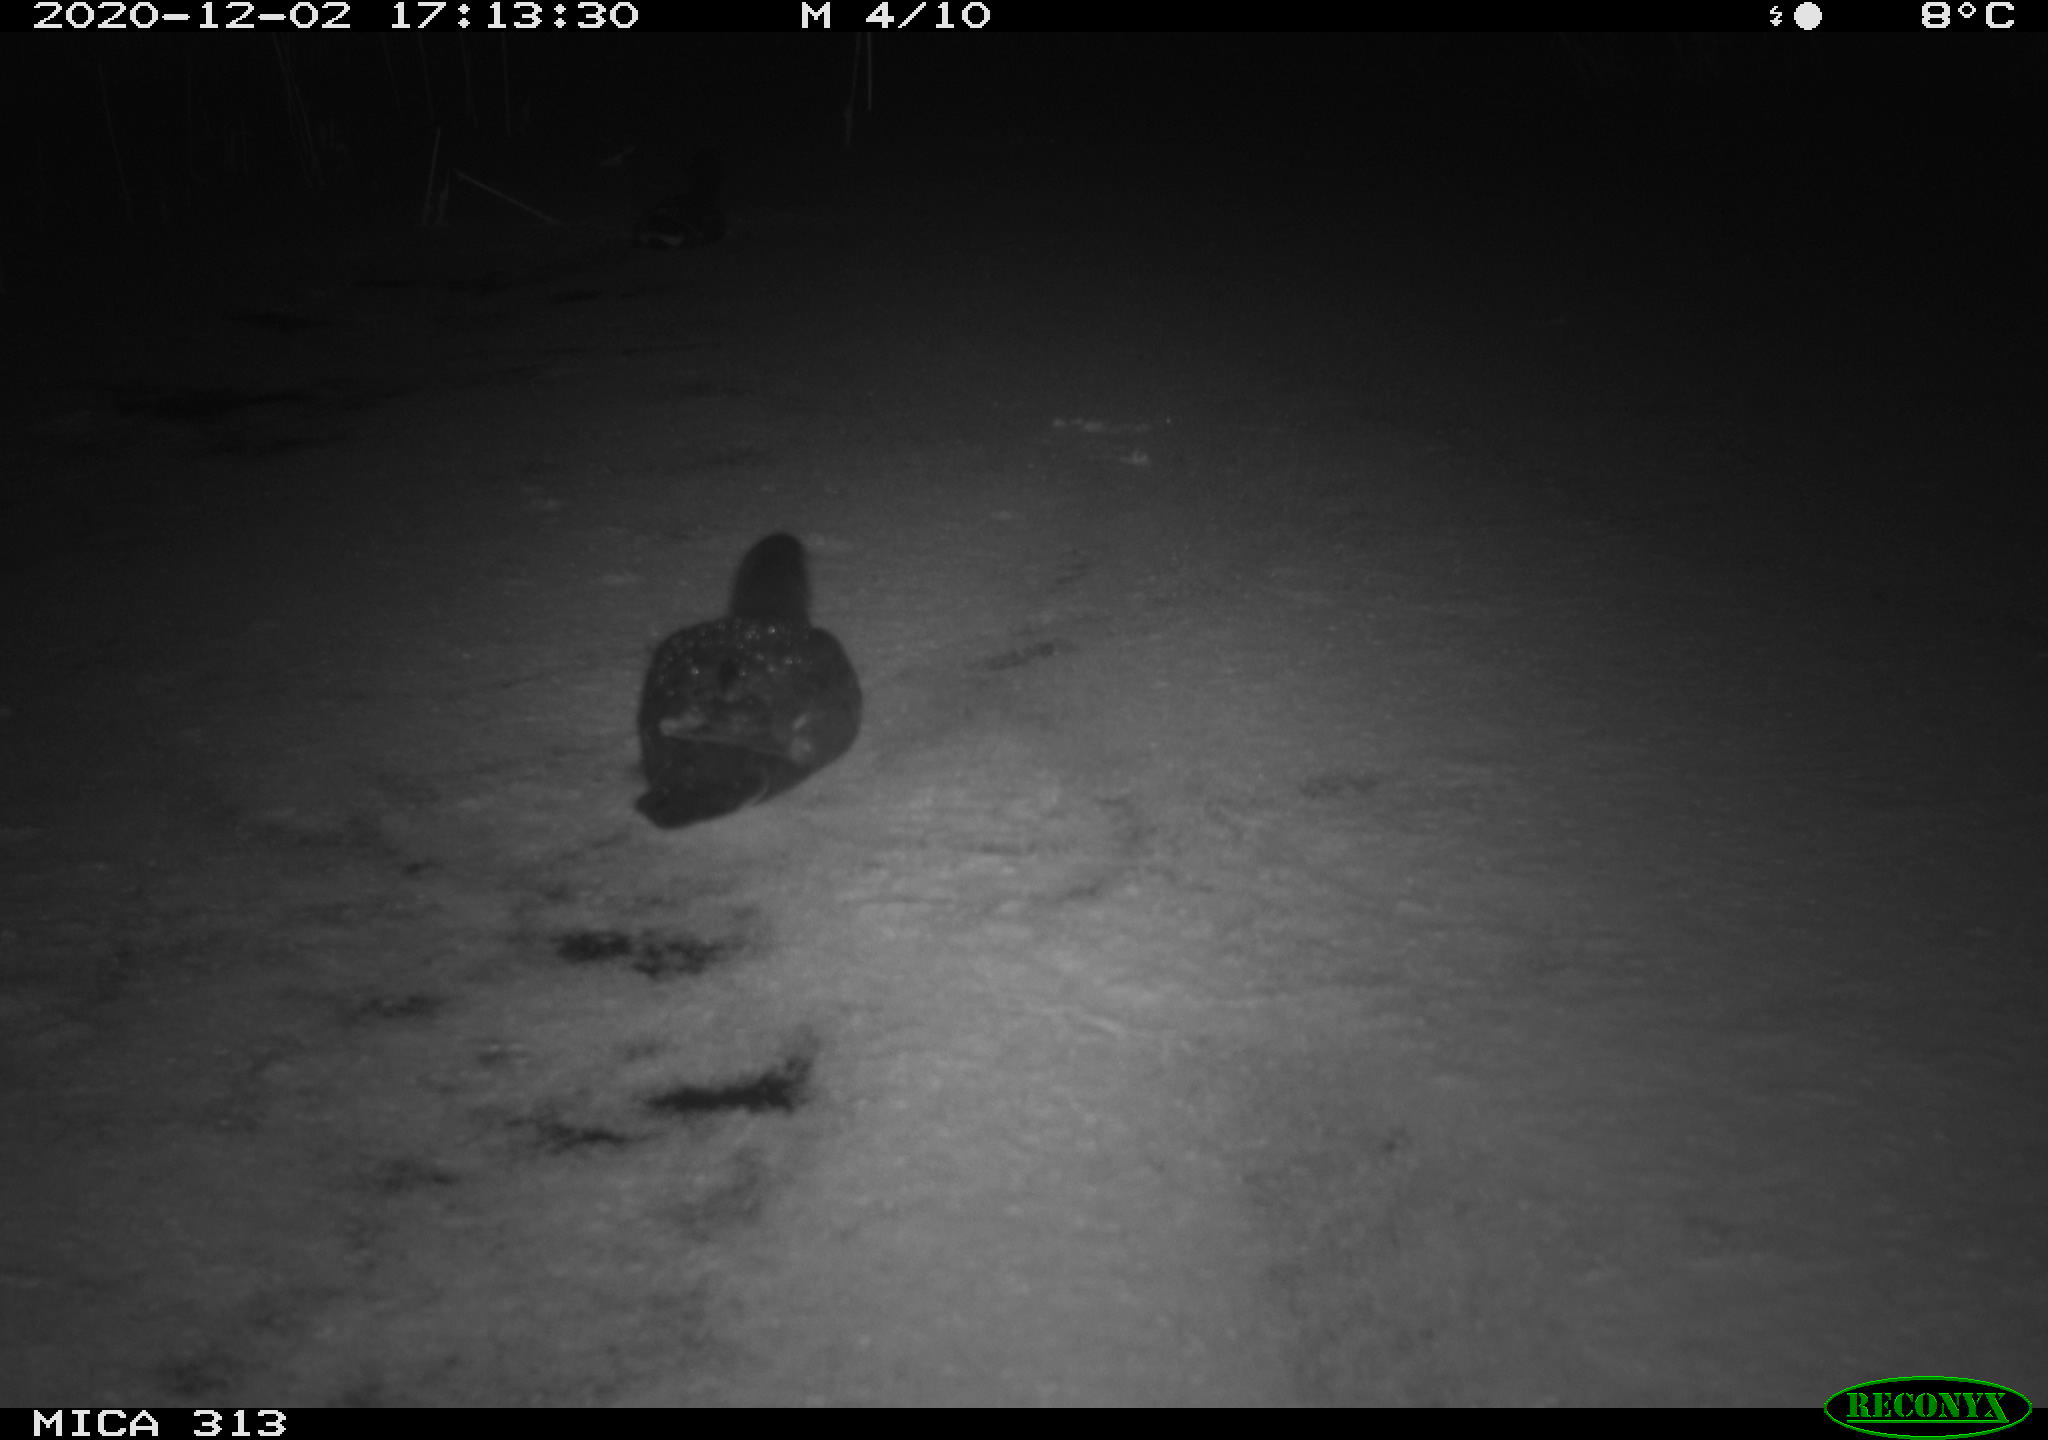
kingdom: Animalia
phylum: Chordata
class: Aves
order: Gruiformes
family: Rallidae
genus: Fulica
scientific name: Fulica atra
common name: Eurasian coot
